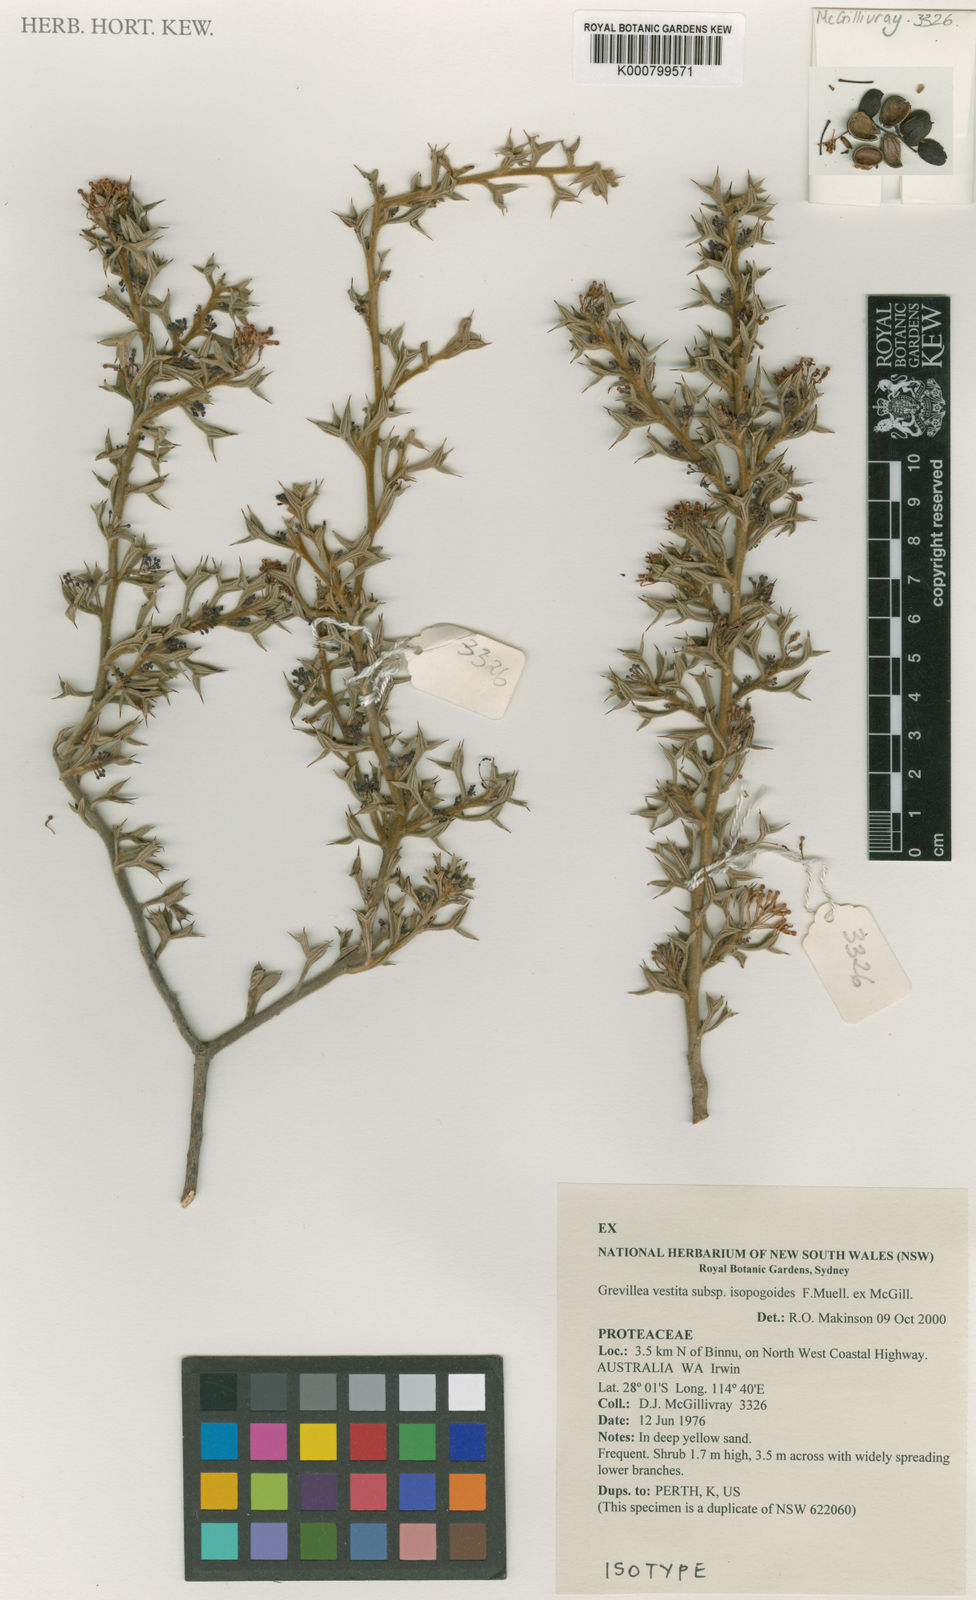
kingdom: Plantae
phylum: Tracheophyta
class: Magnoliopsida
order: Proteales
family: Proteaceae
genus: Grevillea
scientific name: Grevillea vestita
